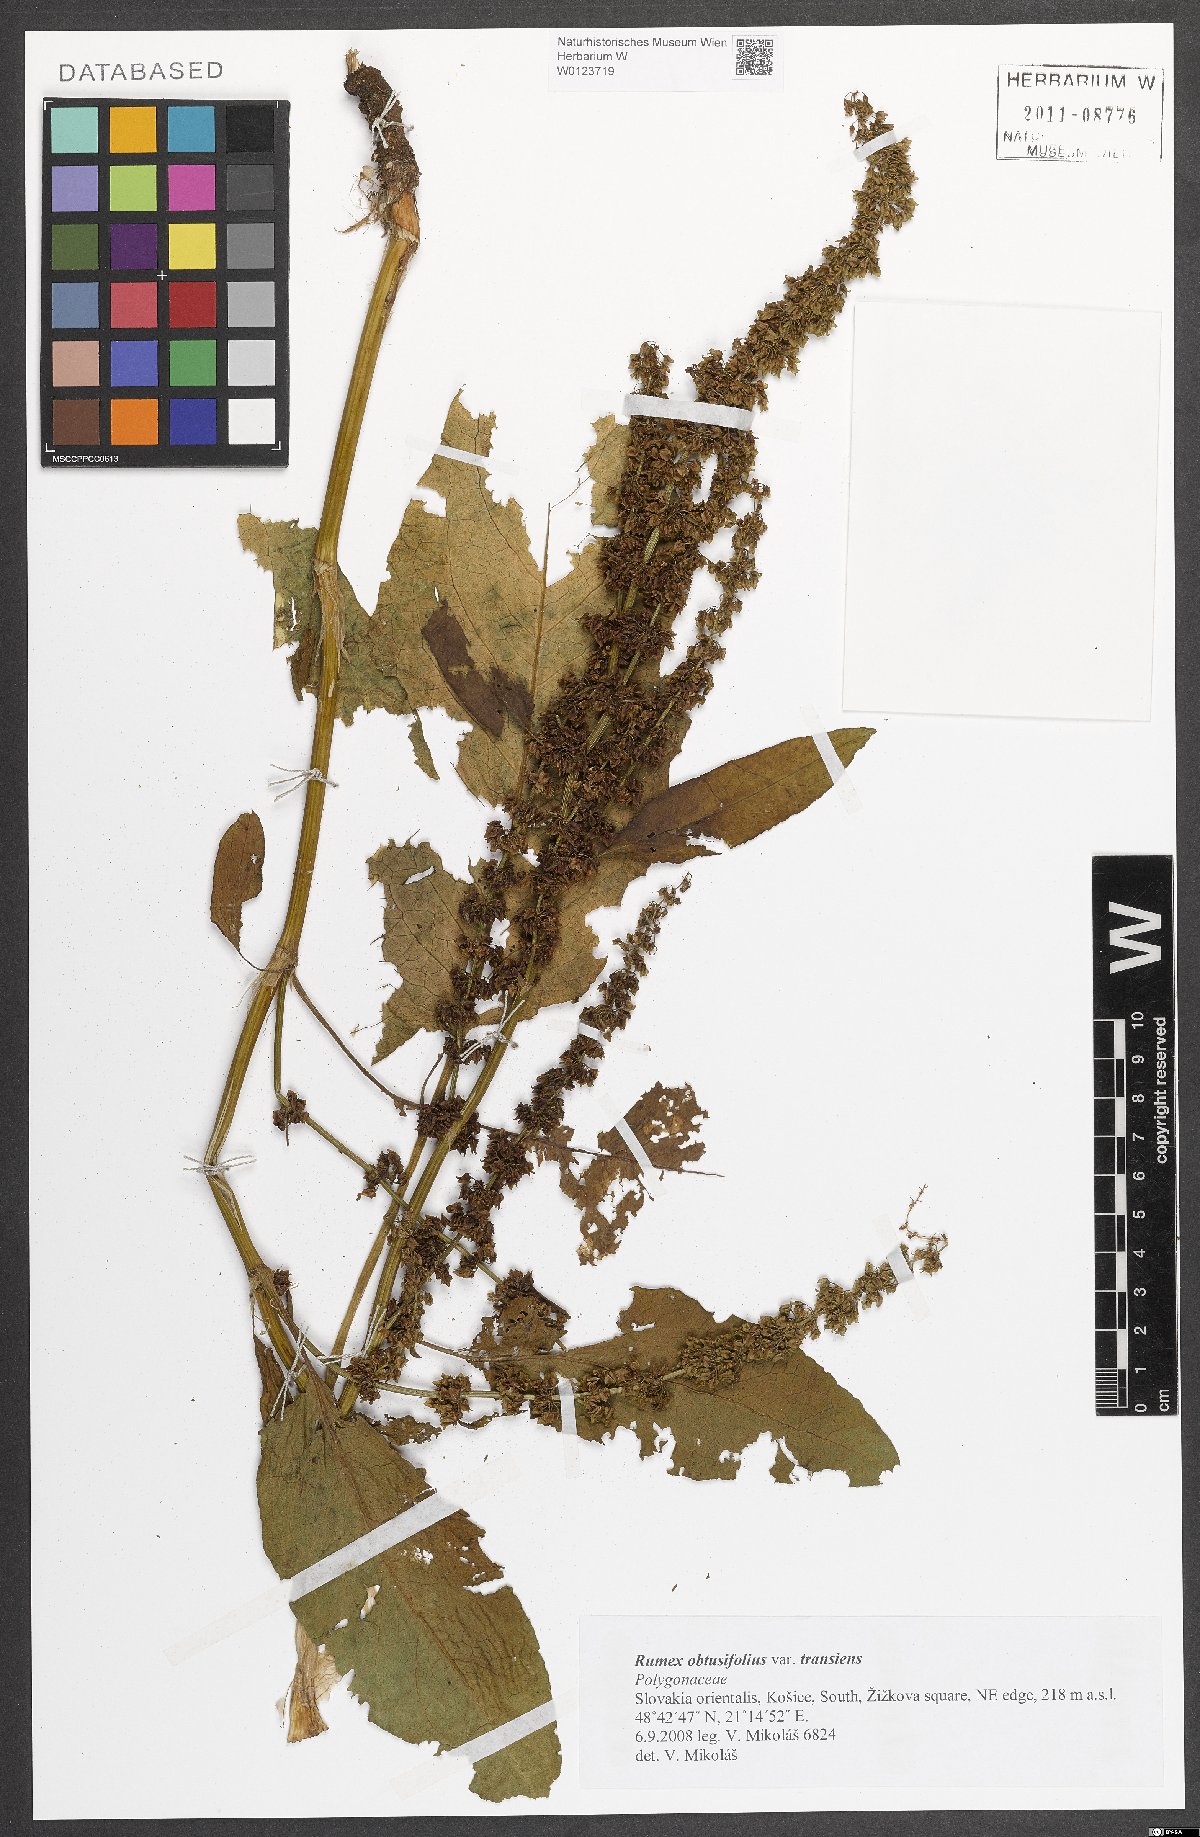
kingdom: Plantae
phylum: Tracheophyta
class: Magnoliopsida
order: Caryophyllales
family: Polygonaceae
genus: Rumex
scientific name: Rumex obtusifolius
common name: Bitter dock
